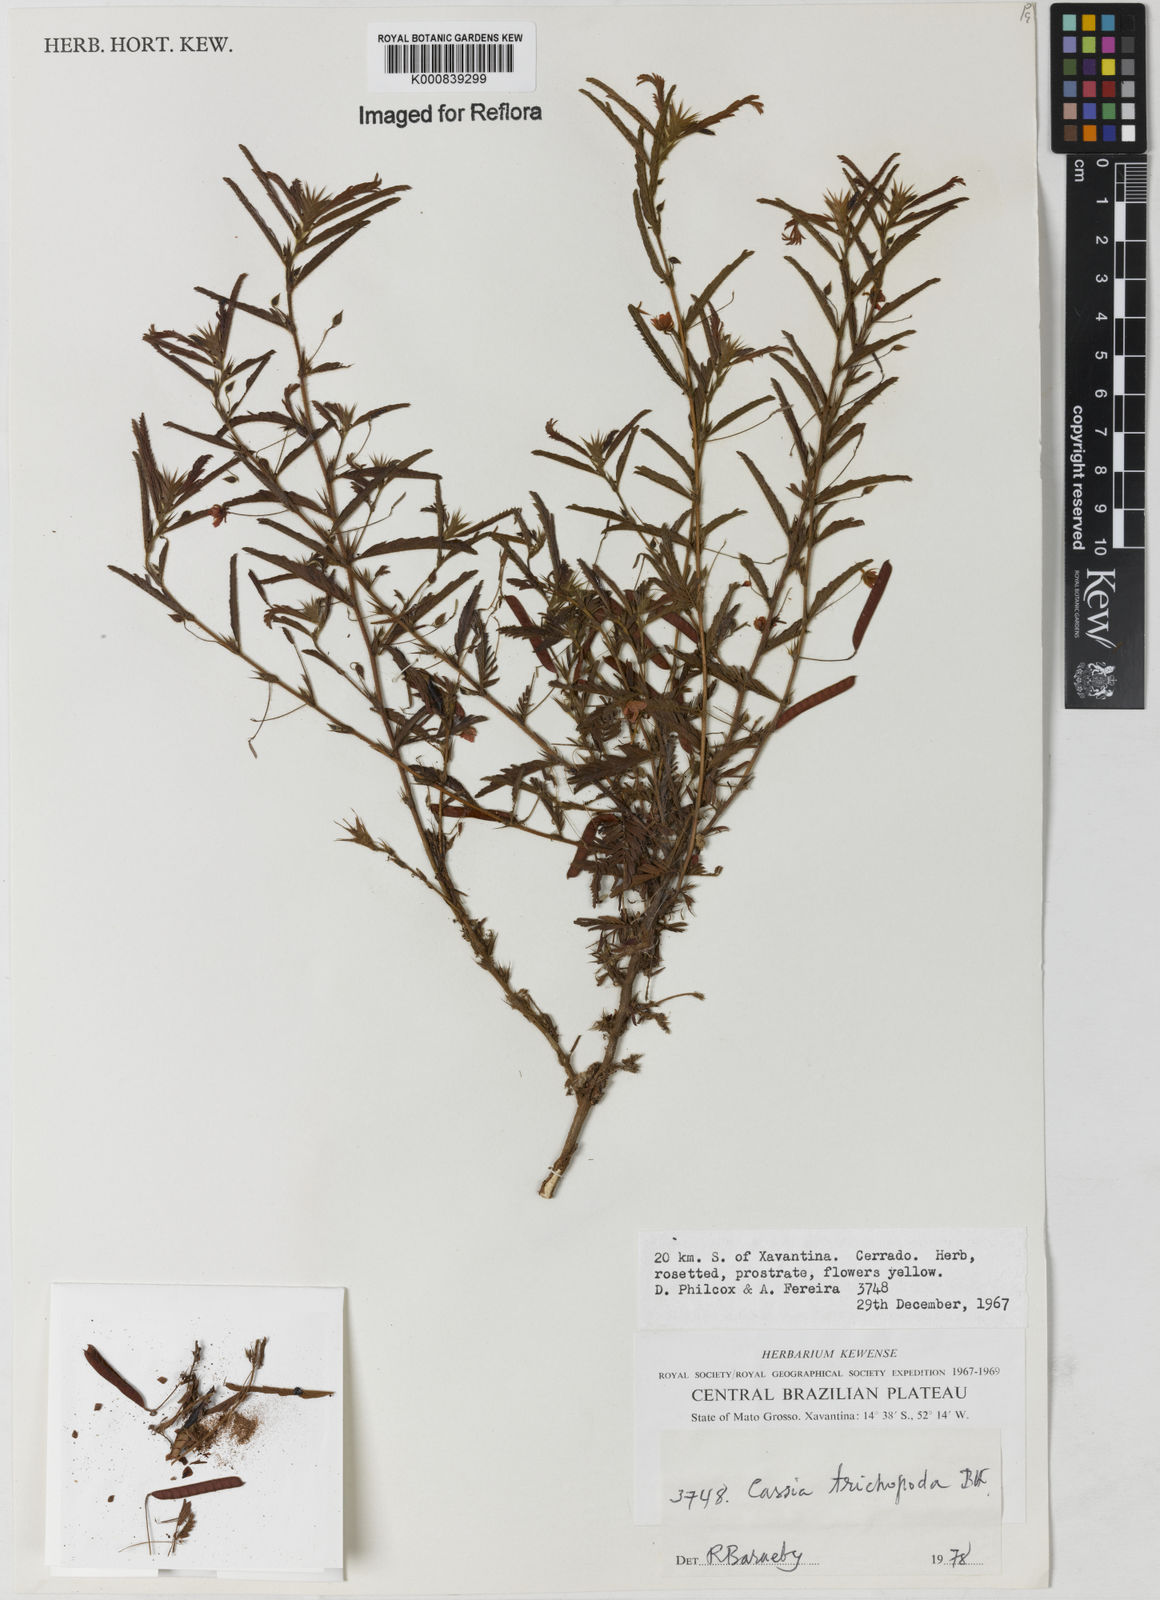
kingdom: Plantae
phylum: Tracheophyta
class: Magnoliopsida
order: Fabales
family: Fabaceae
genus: Chamaecrista
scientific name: Chamaecrista trichopoda
